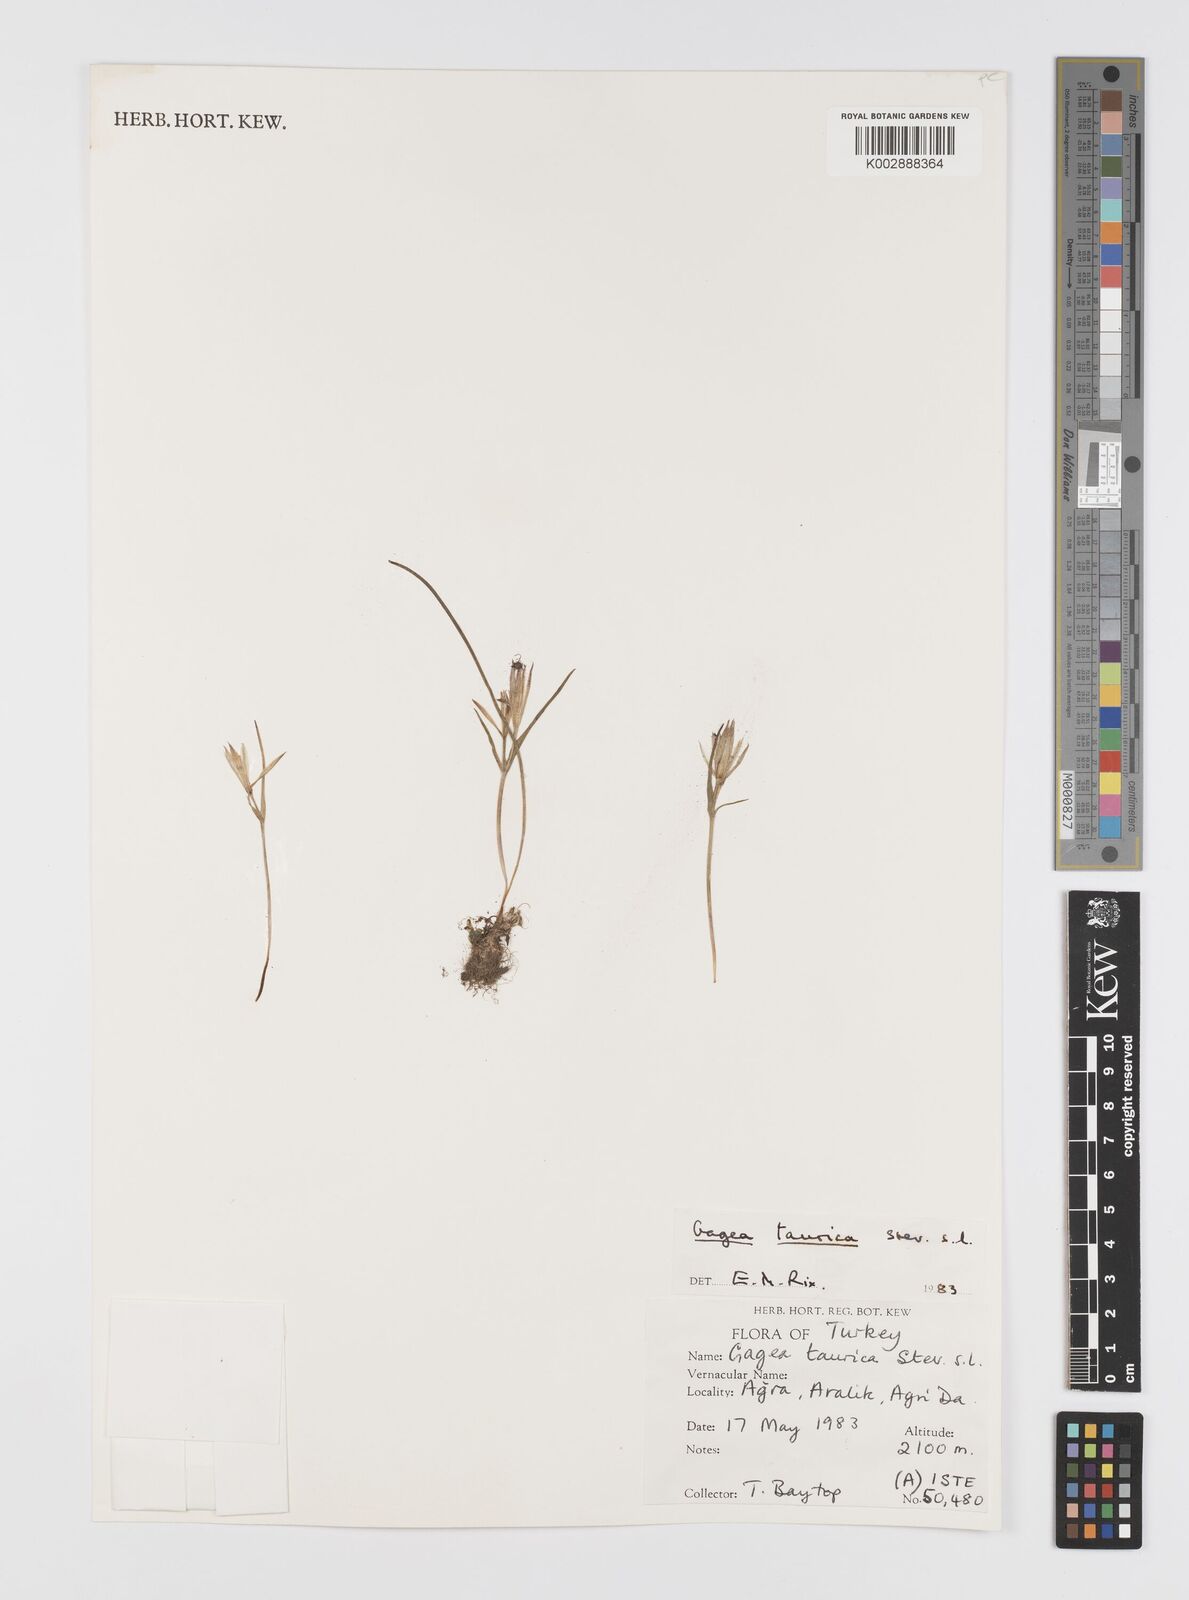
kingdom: Plantae
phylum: Tracheophyta
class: Liliopsida
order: Liliales
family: Liliaceae
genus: Gagea
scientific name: Gagea taurica
